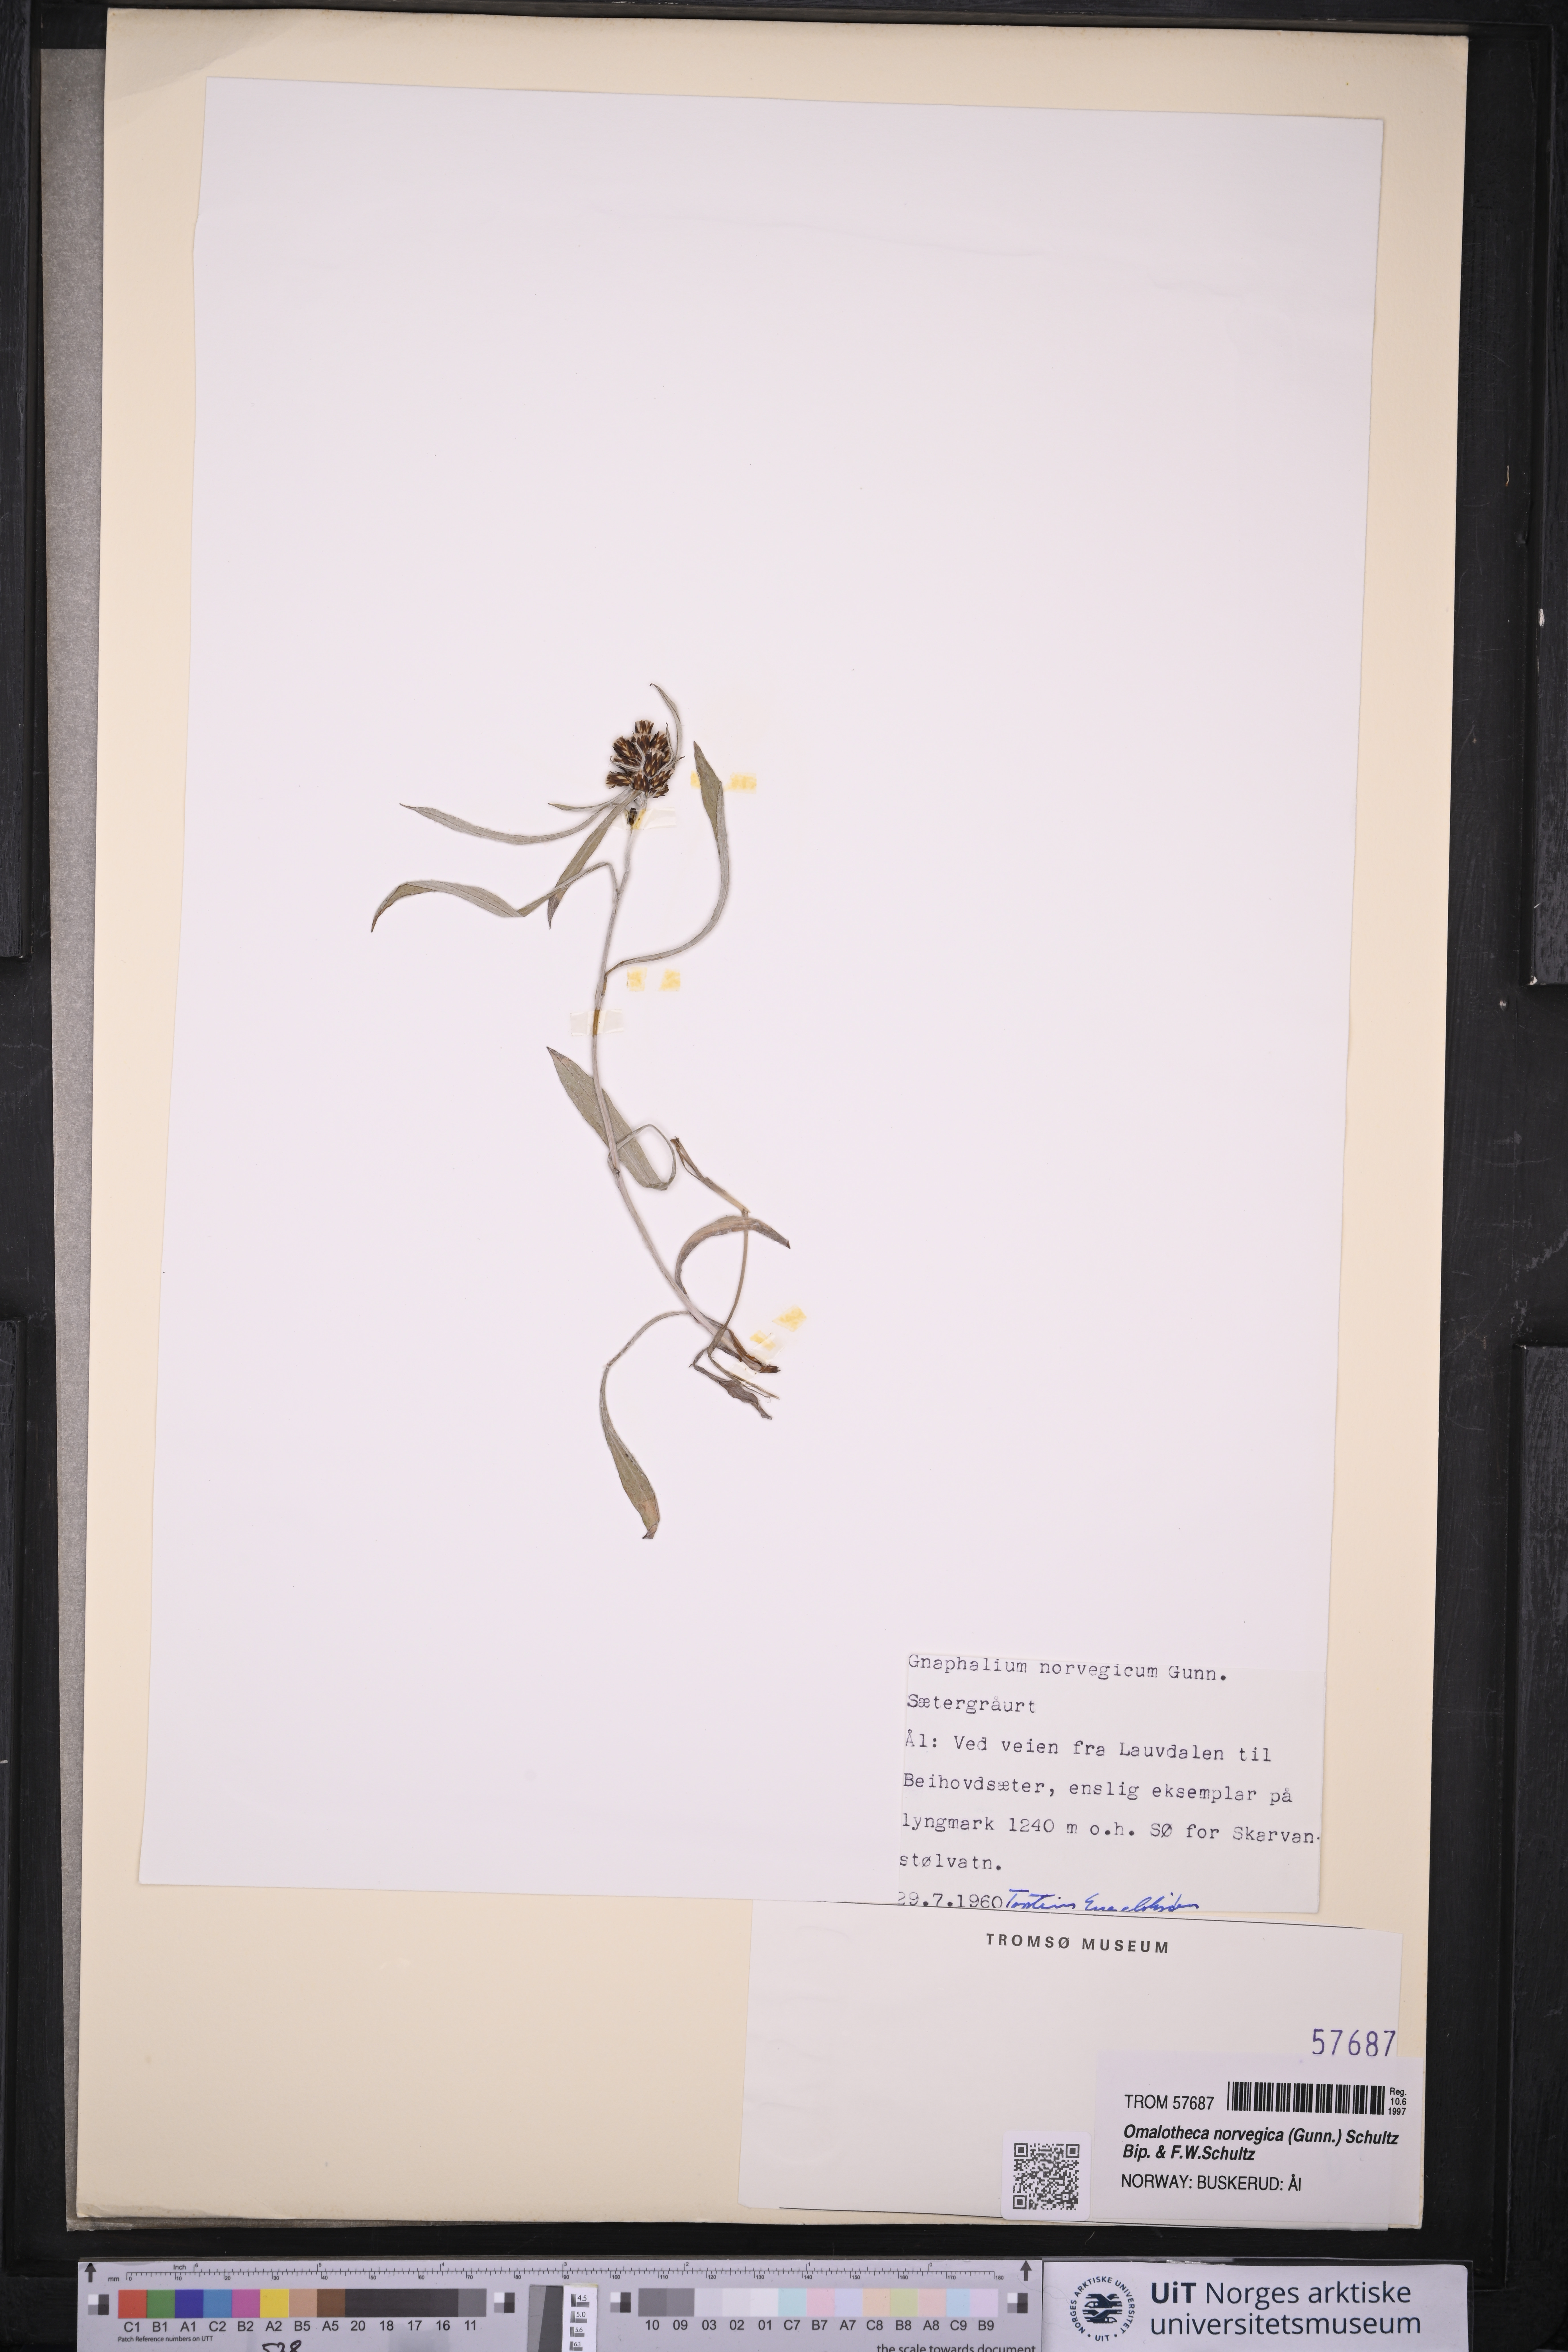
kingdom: Plantae
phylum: Tracheophyta
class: Magnoliopsida
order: Asterales
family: Asteraceae
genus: Omalotheca
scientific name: Omalotheca norvegica
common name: Norwegian arctic-cudweed
